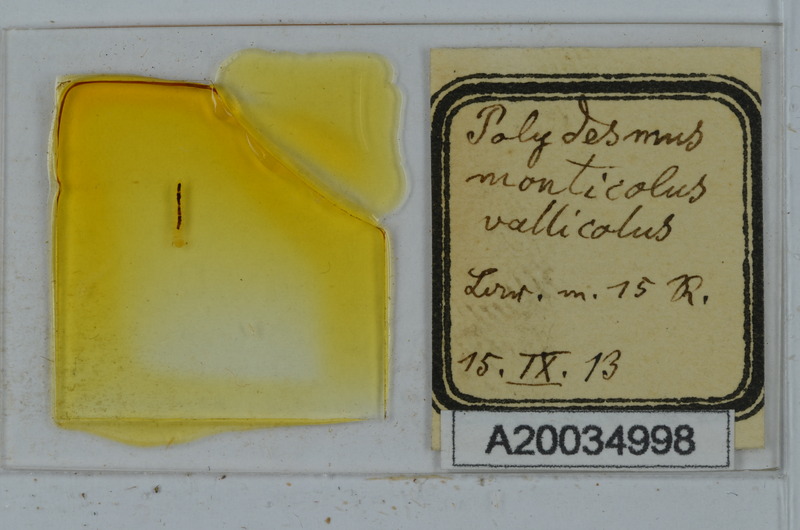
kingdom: Animalia
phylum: Arthropoda
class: Diplopoda
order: Polydesmida
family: Polydesmidae
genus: Polydesmus
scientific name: Polydesmus monticola
